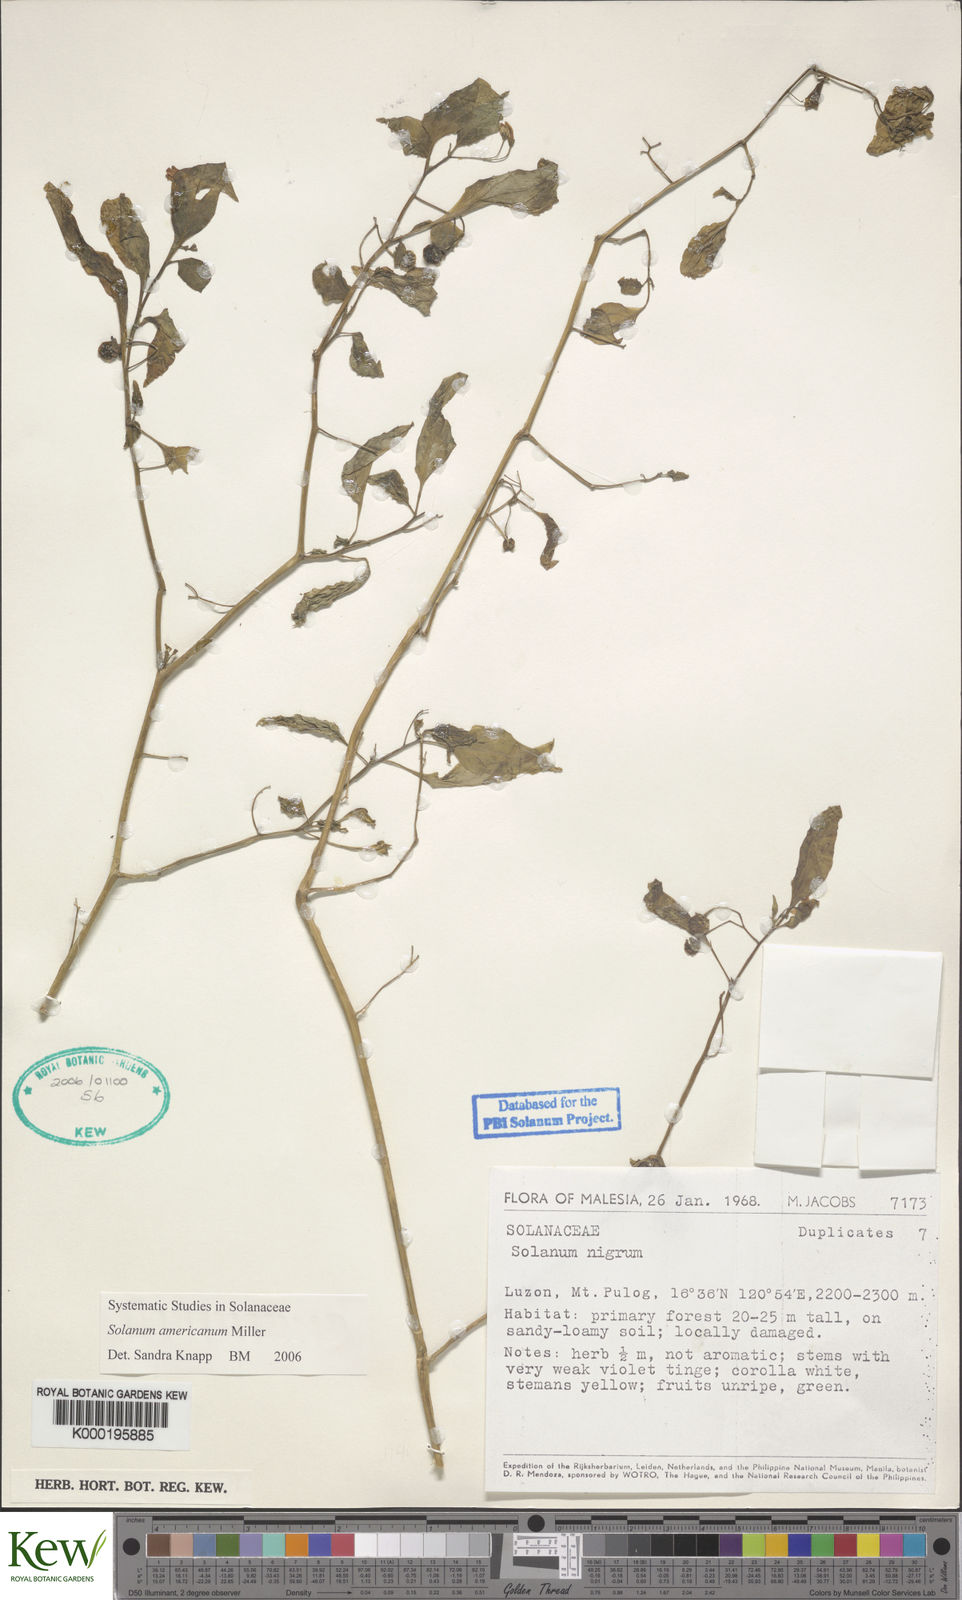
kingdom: Plantae
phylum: Tracheophyta
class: Magnoliopsida
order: Solanales
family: Solanaceae
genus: Solanum
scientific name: Solanum americanum
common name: American black nightshade
